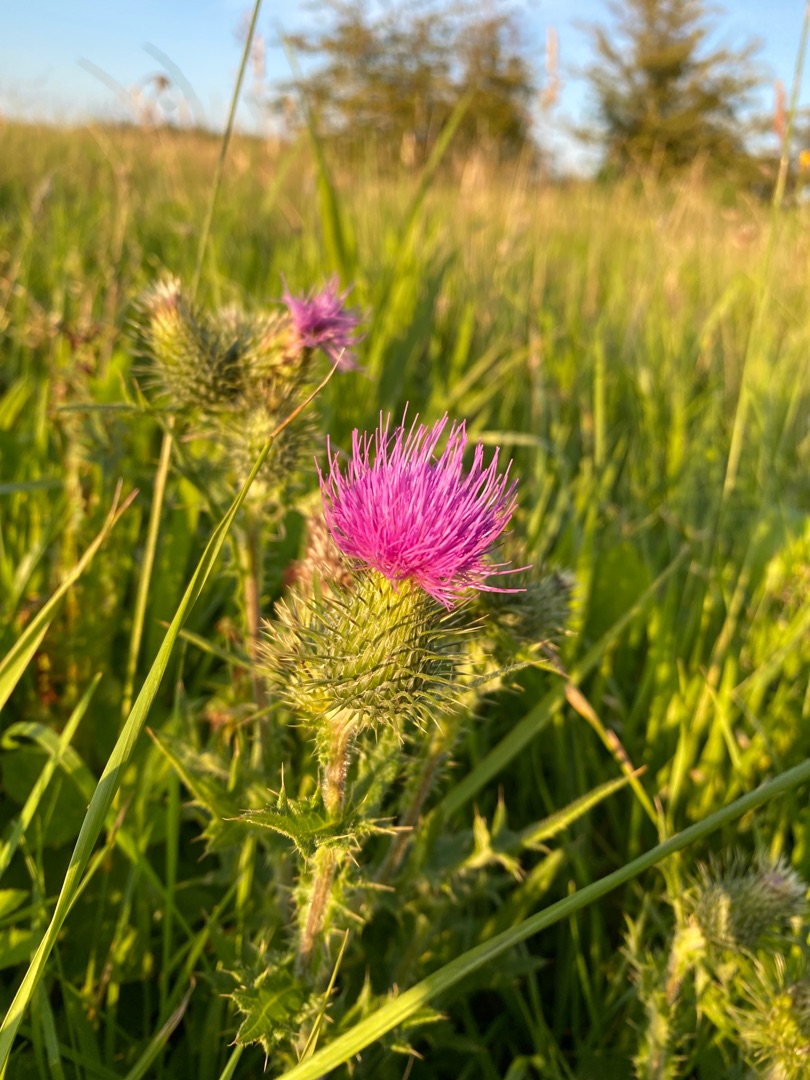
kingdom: Plantae
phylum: Tracheophyta
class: Magnoliopsida
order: Asterales
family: Asteraceae
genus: Cirsium
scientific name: Cirsium vulgare
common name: Horse-tidsel
